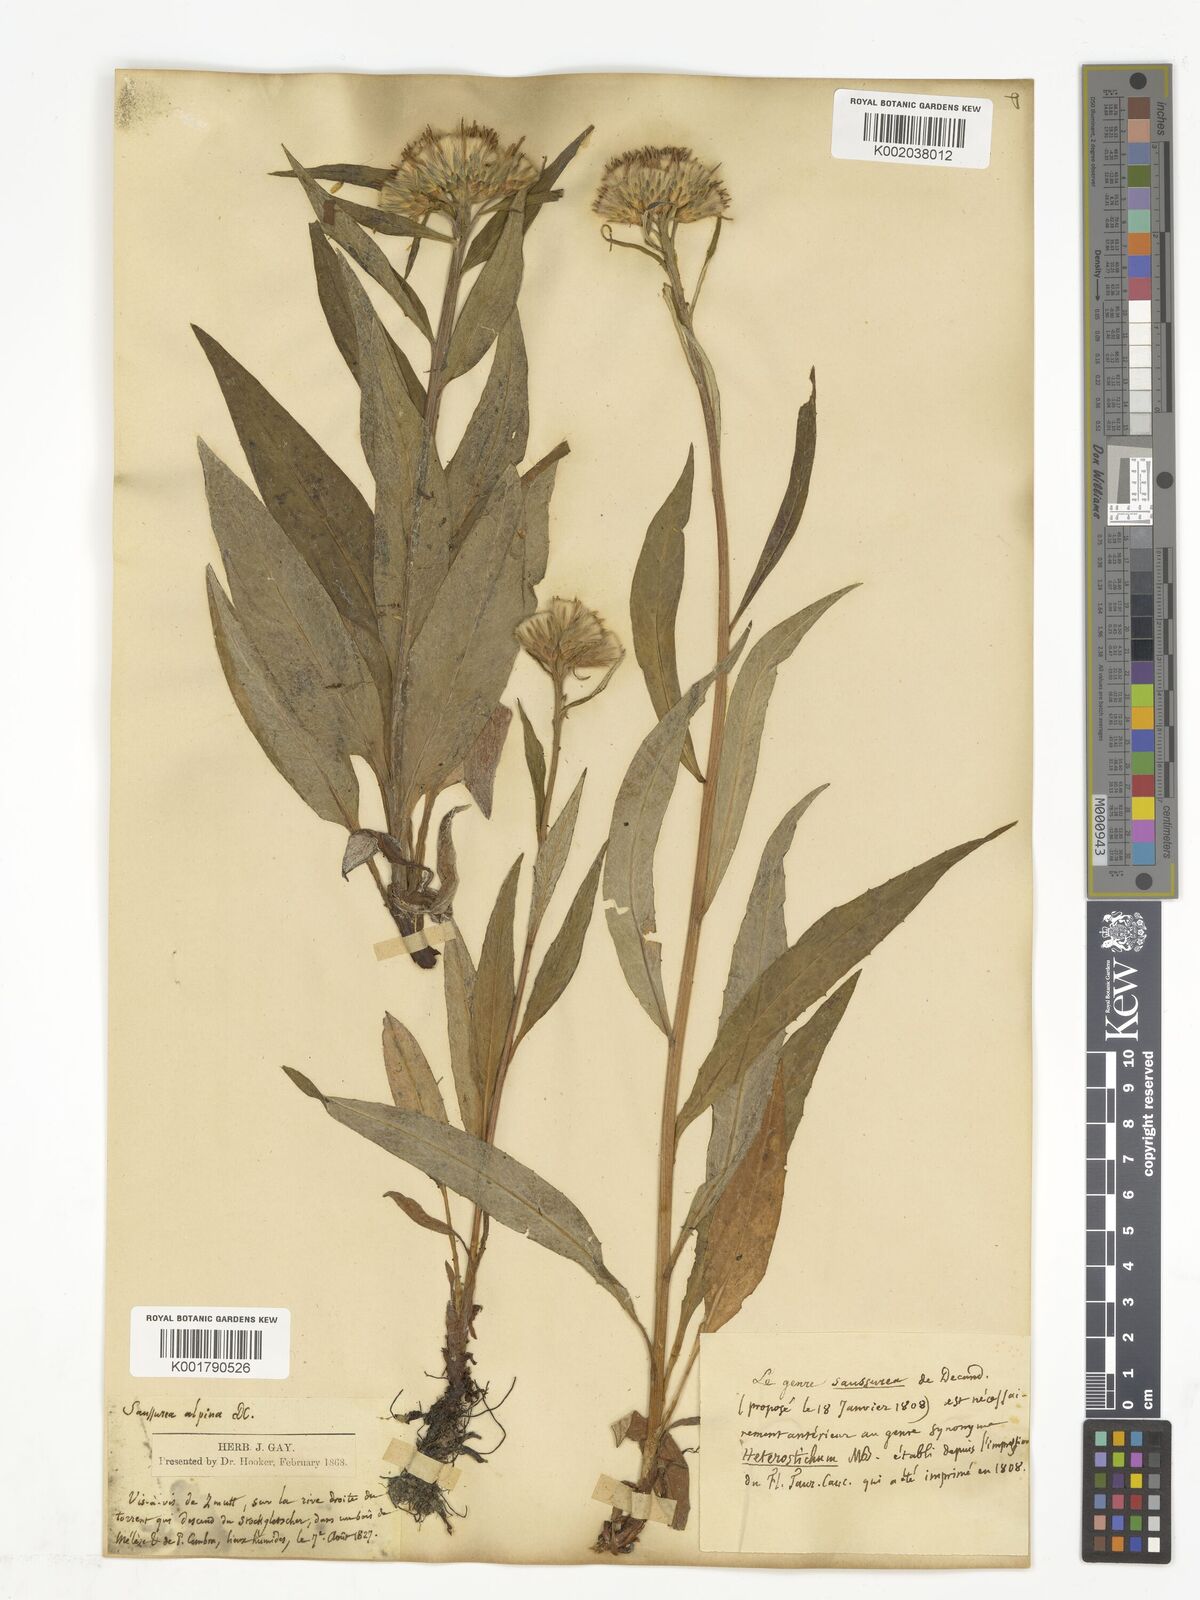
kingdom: Plantae
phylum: Tracheophyta
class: Magnoliopsida
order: Asterales
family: Asteraceae
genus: Saussurea
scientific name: Saussurea
